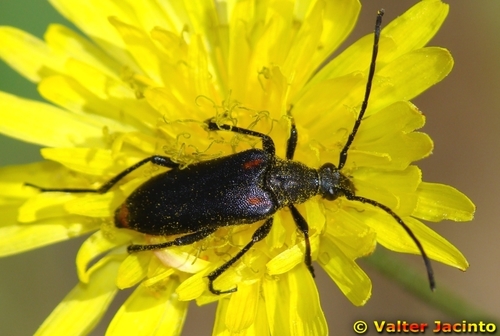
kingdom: Animalia
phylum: Arthropoda
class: Insecta
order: Coleoptera
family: Cerambycidae
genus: Nustera
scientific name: Nustera distigma
